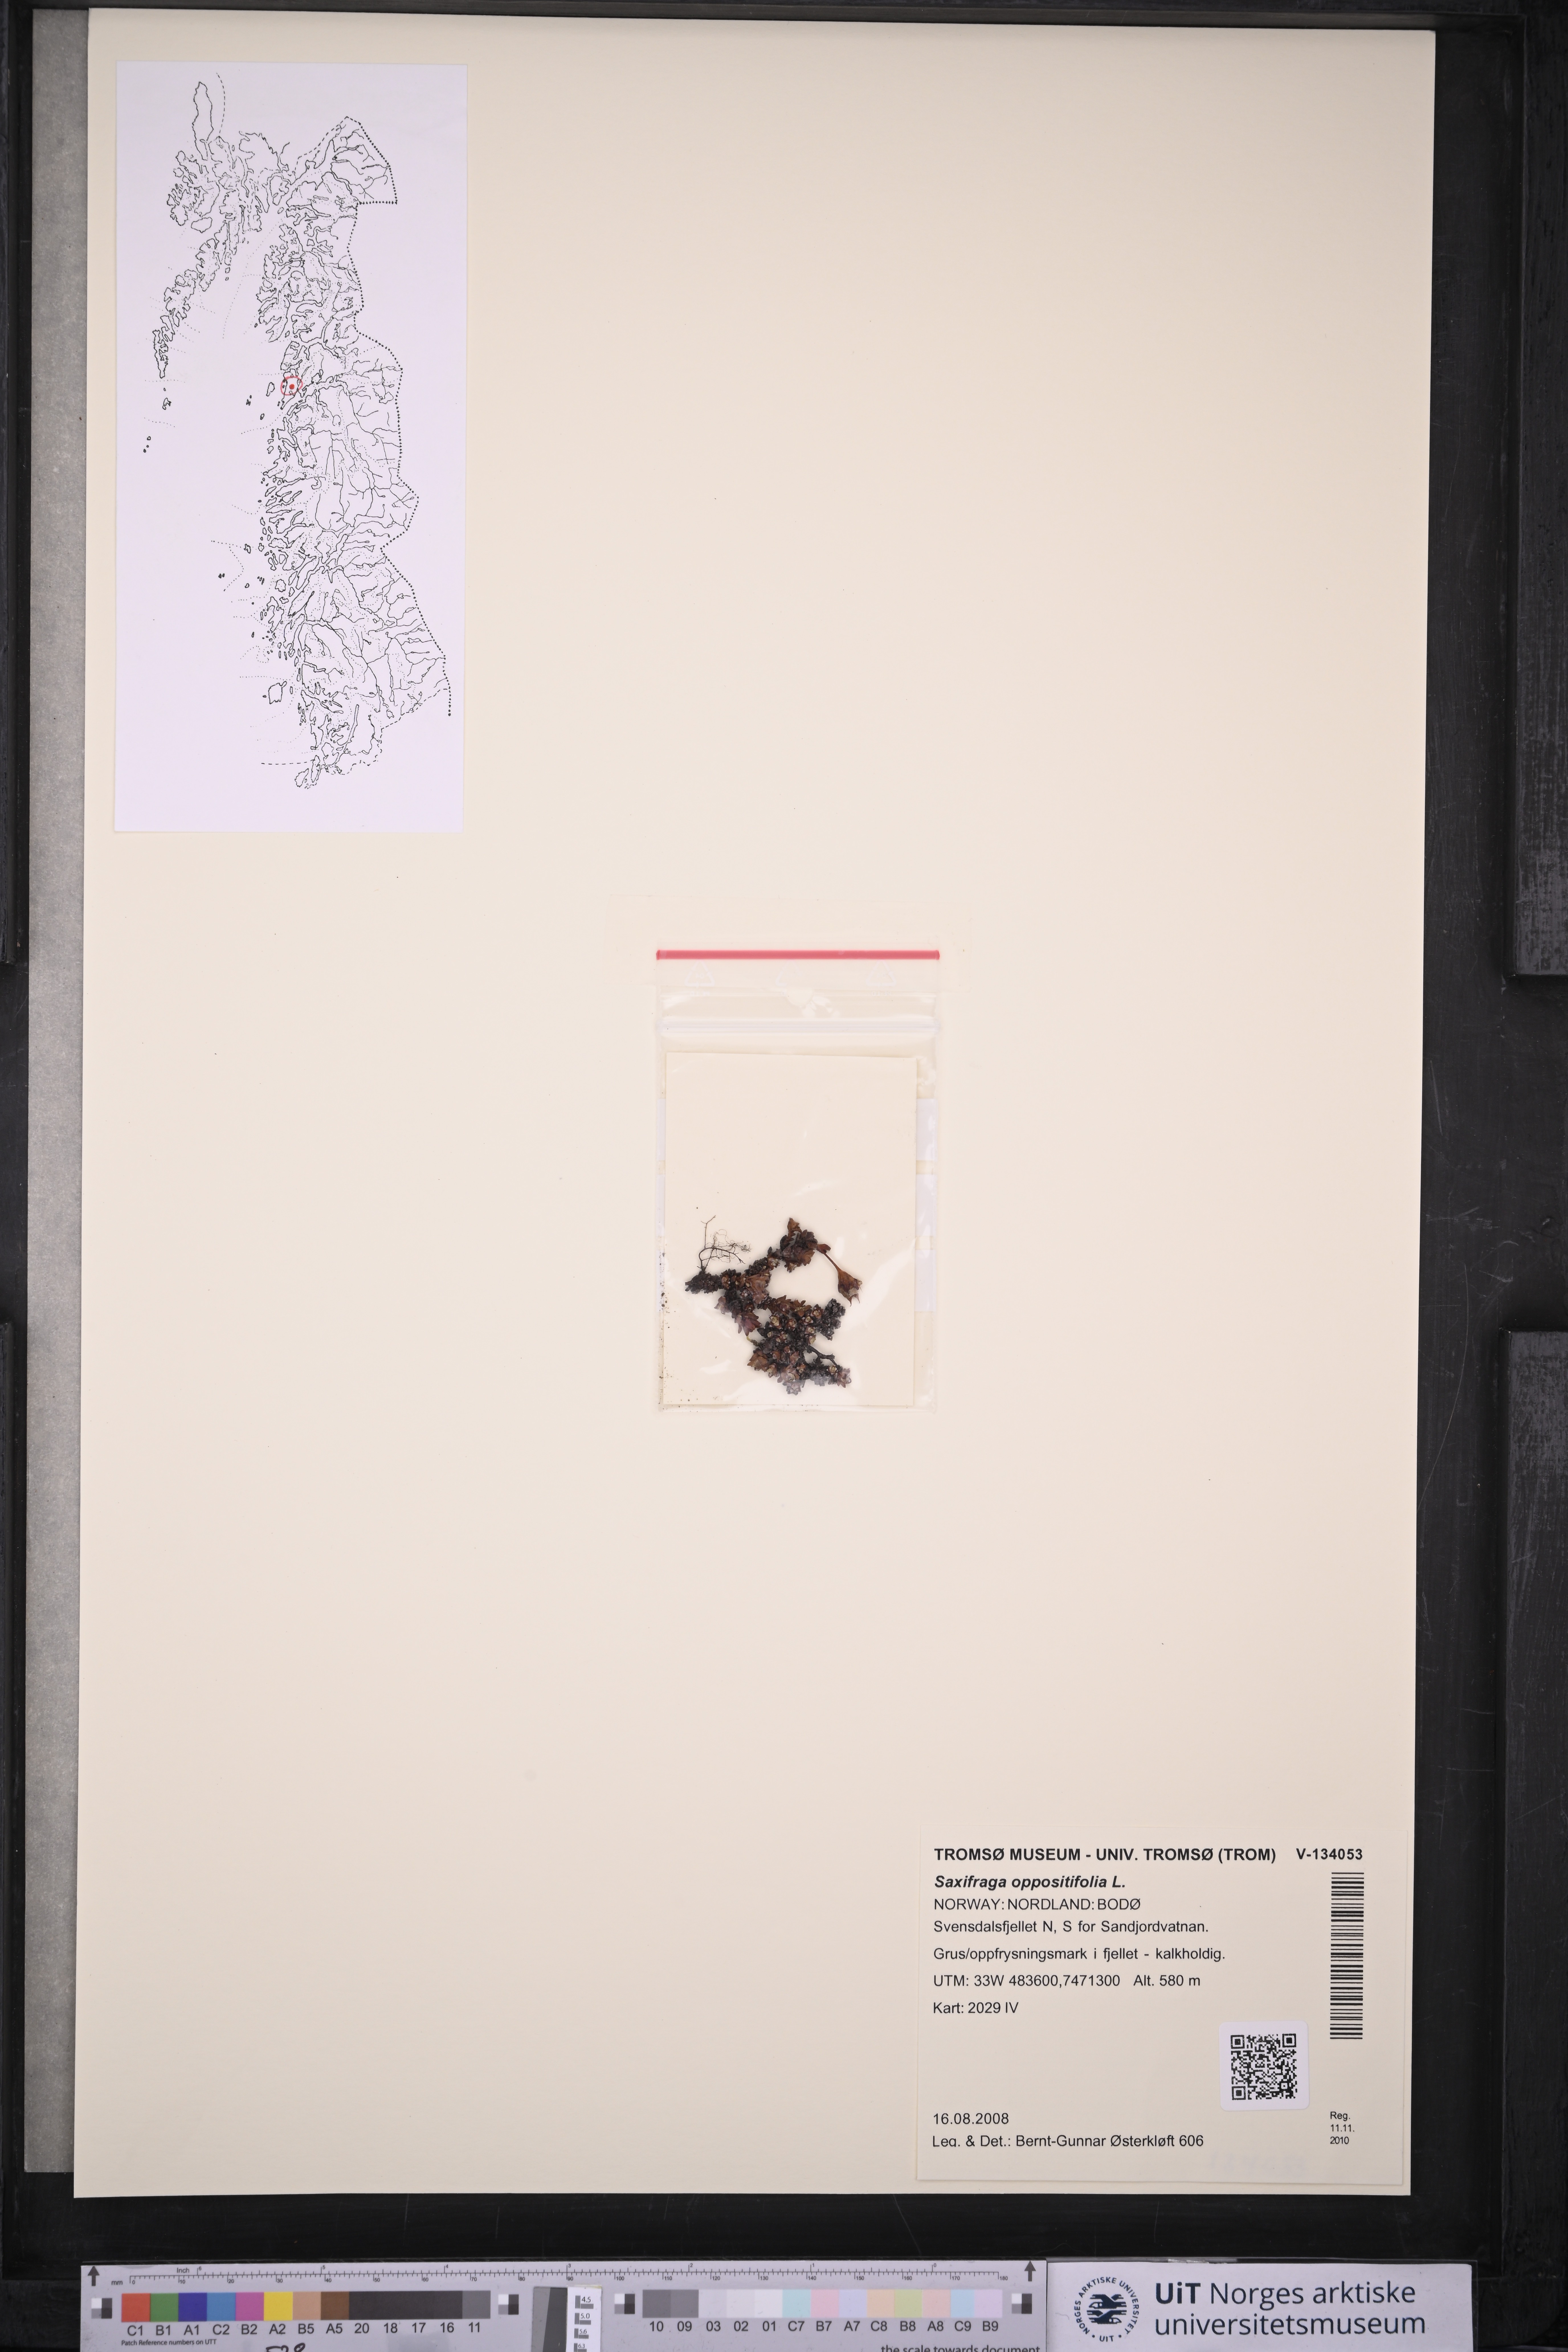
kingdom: Plantae
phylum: Tracheophyta
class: Magnoliopsida
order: Saxifragales
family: Saxifragaceae
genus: Saxifraga
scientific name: Saxifraga oppositifolia
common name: Purple saxifrage
